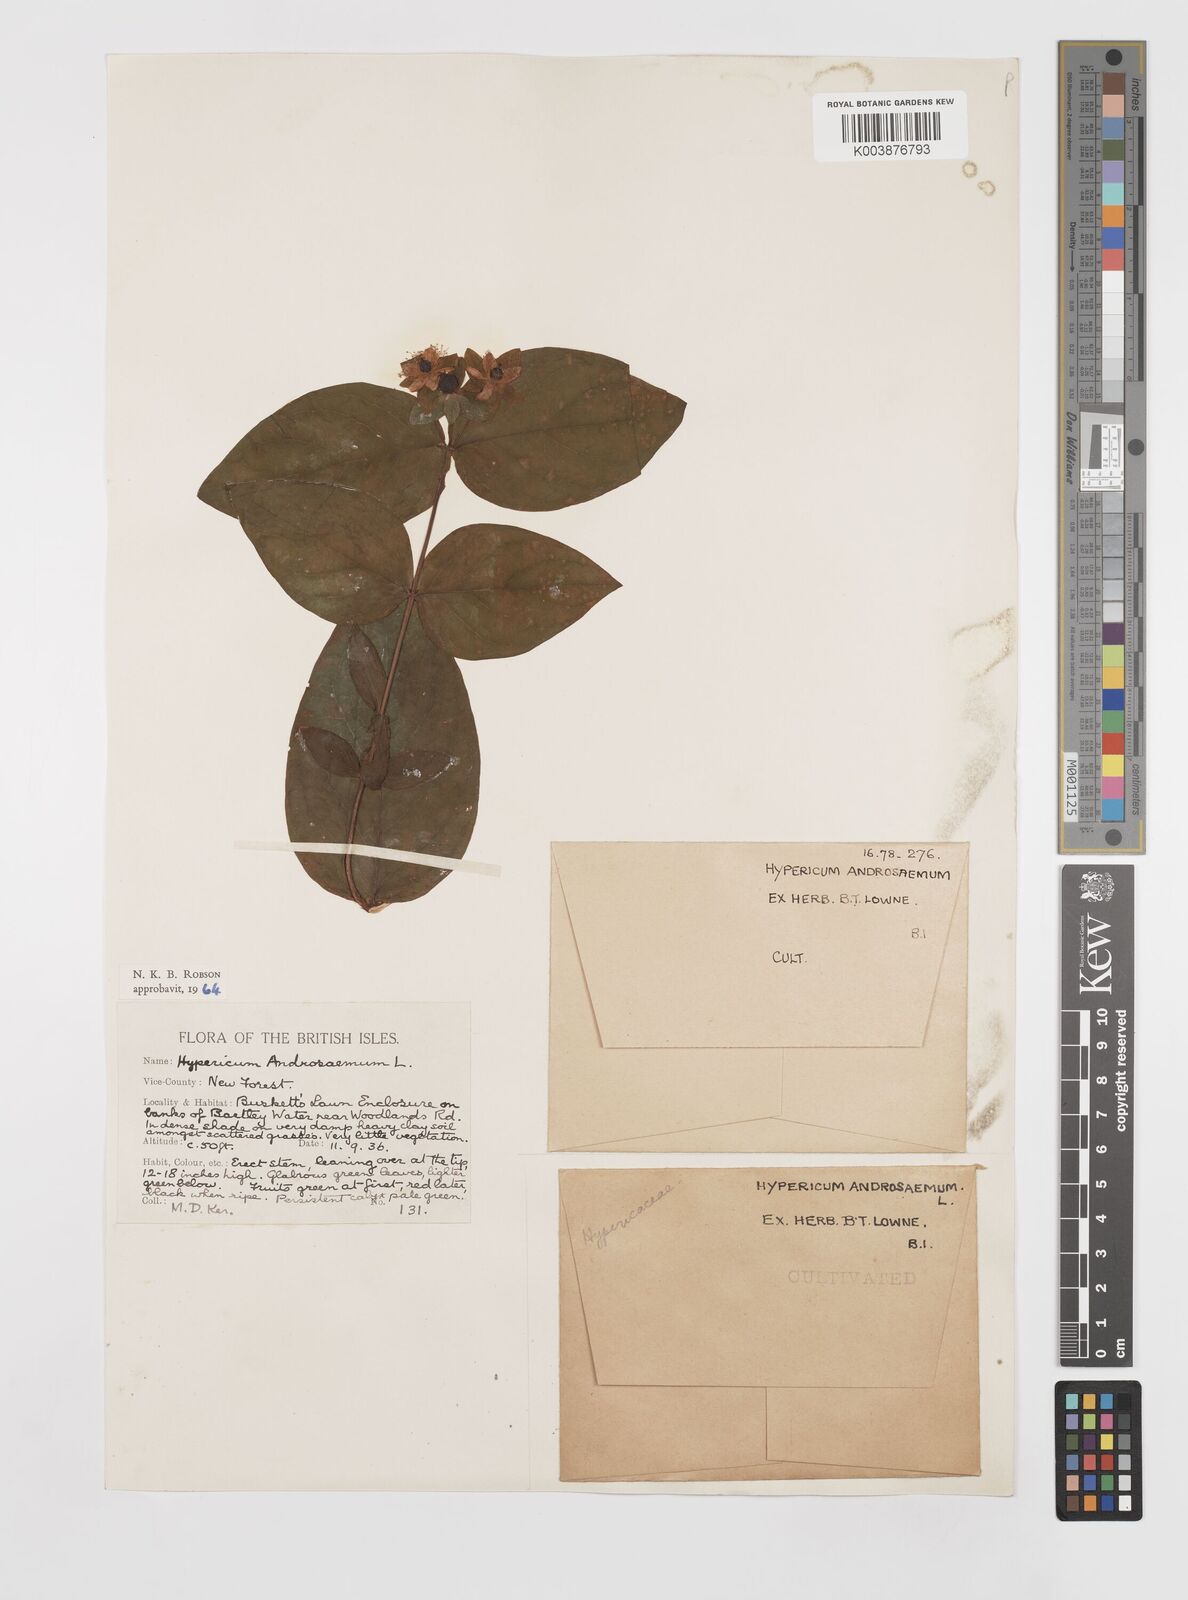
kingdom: Plantae
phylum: Tracheophyta
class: Magnoliopsida
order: Malpighiales
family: Hypericaceae
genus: Hypericum
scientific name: Hypericum androsaemum
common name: Sweet-amber
